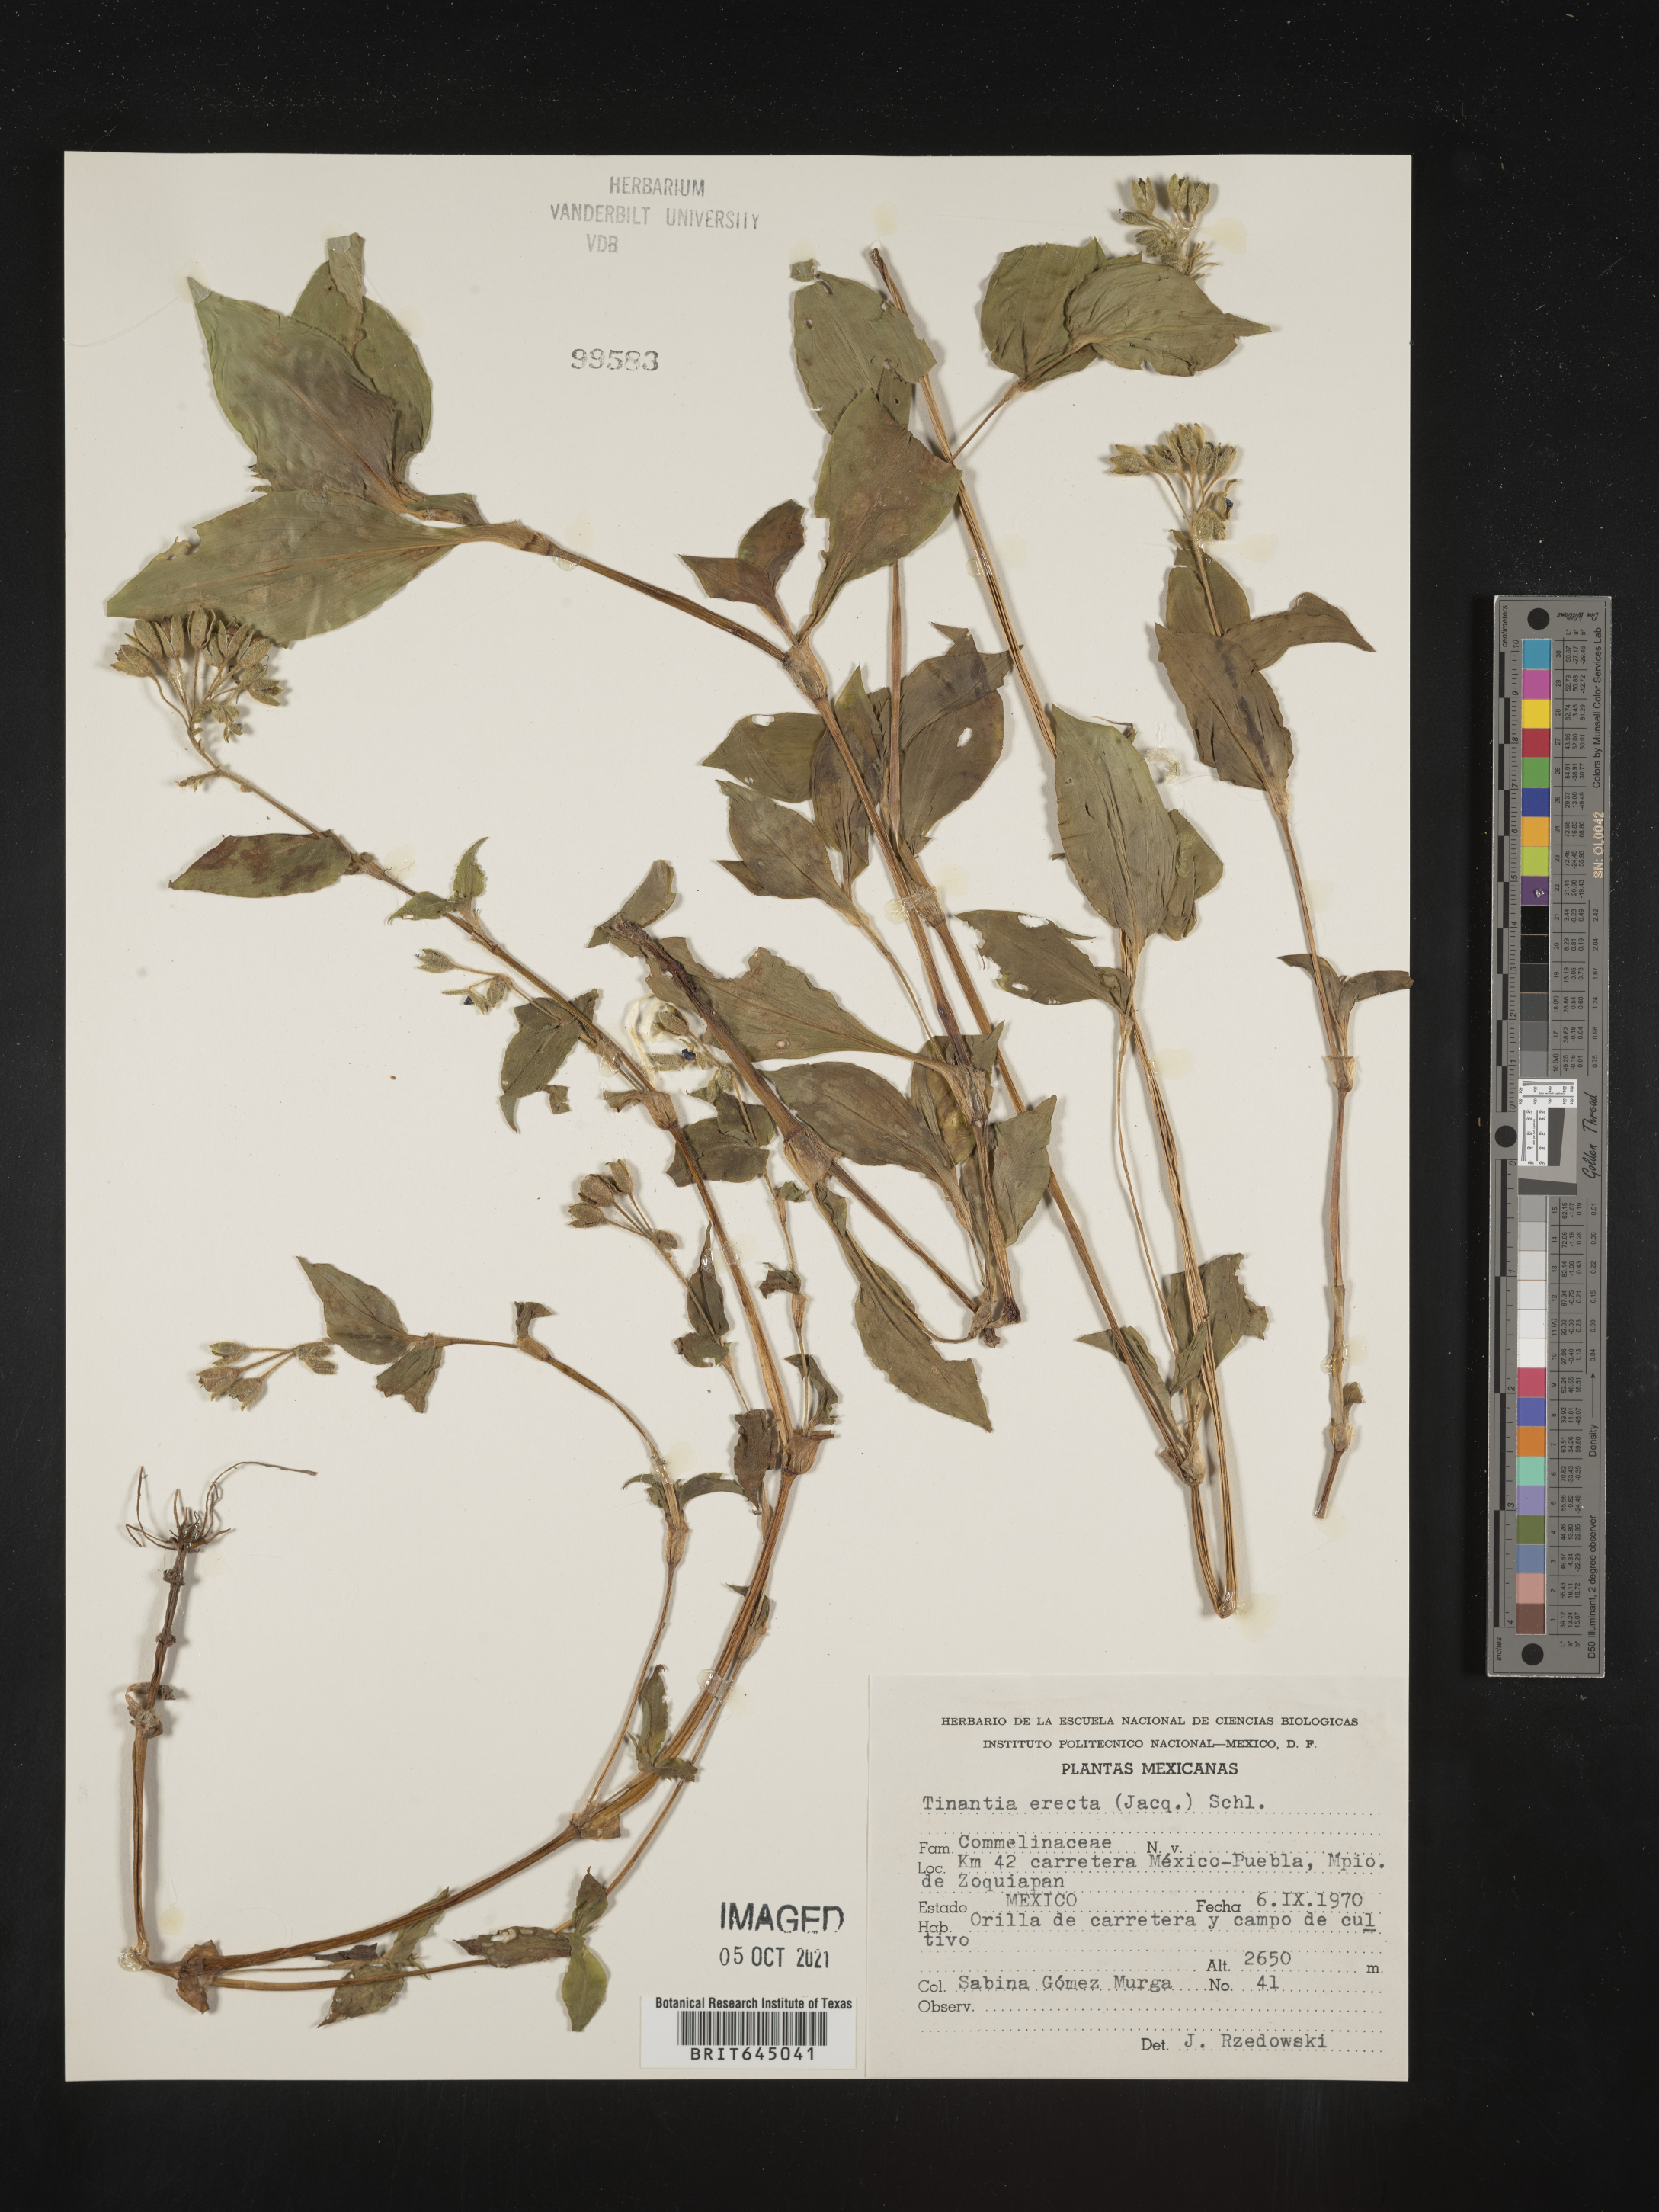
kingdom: Plantae
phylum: Tracheophyta
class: Liliopsida
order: Commelinales
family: Commelinaceae
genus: Tinantia
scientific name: Tinantia
